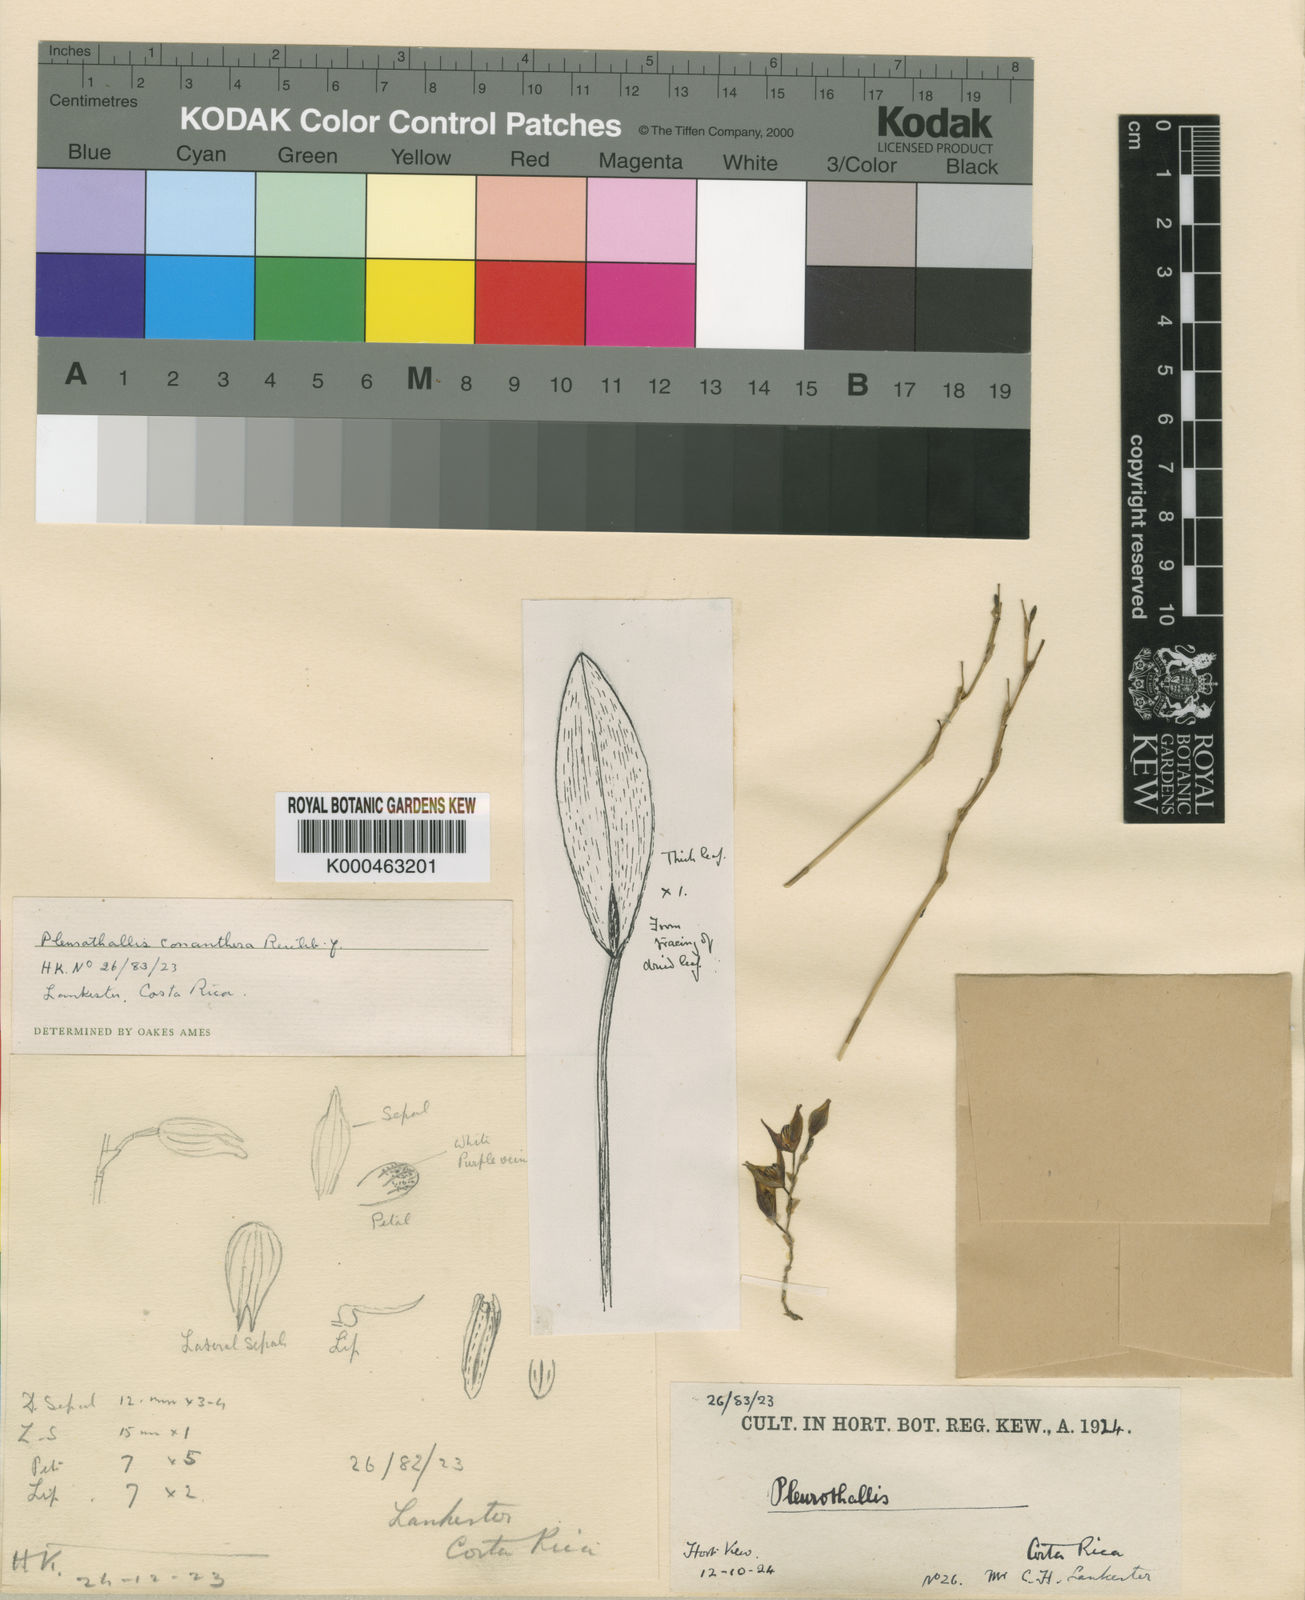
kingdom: Plantae
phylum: Tracheophyta
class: Liliopsida
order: Asparagales
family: Orchidaceae
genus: Stelis
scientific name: Stelis pachyglossa
